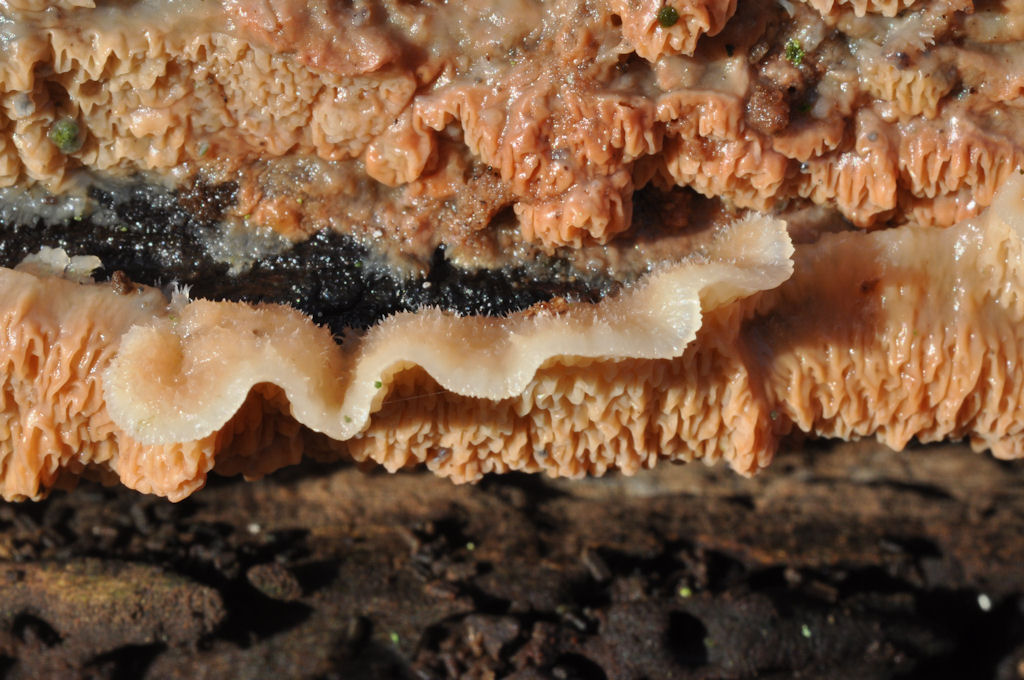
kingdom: Fungi
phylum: Basidiomycota
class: Agaricomycetes
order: Polyporales
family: Meruliaceae
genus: Phlebia
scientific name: Phlebia tremellosa
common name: bævrende åresvamp
